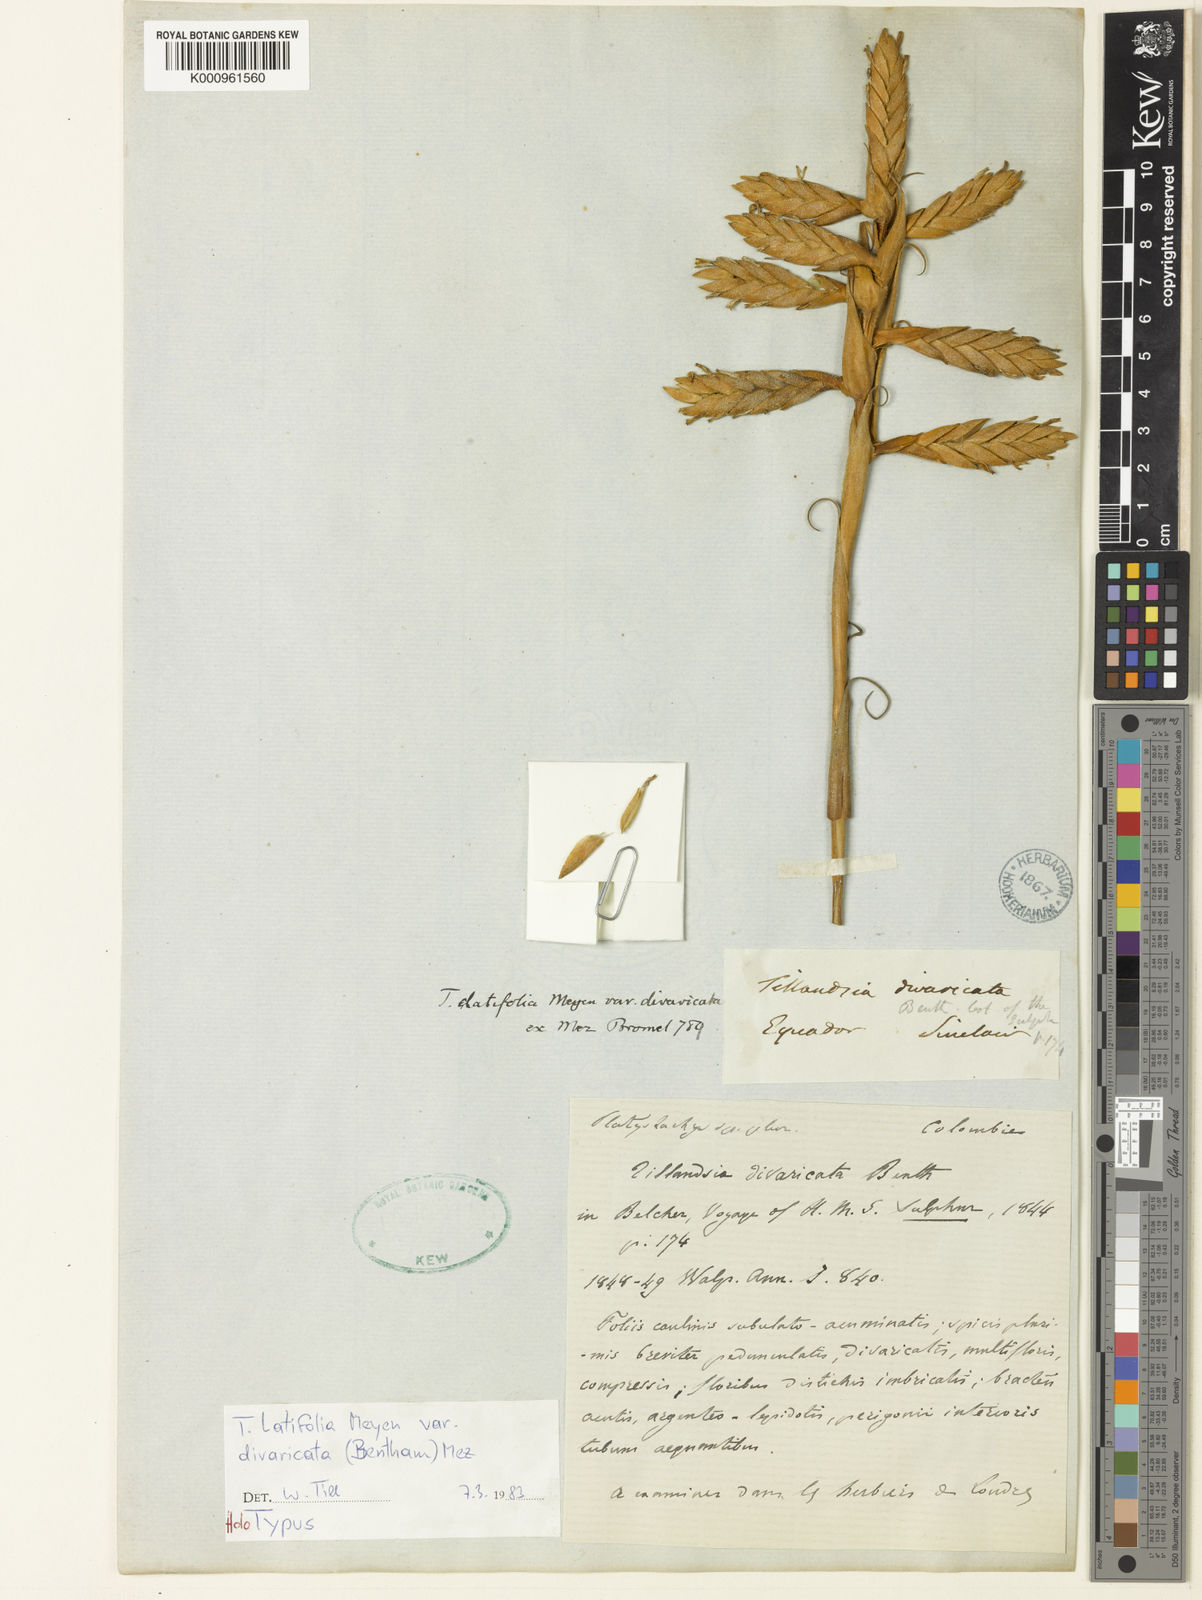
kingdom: Plantae
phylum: Tracheophyta
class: Liliopsida
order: Poales
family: Bromeliaceae
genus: Tillandsia
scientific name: Tillandsia latifolia
